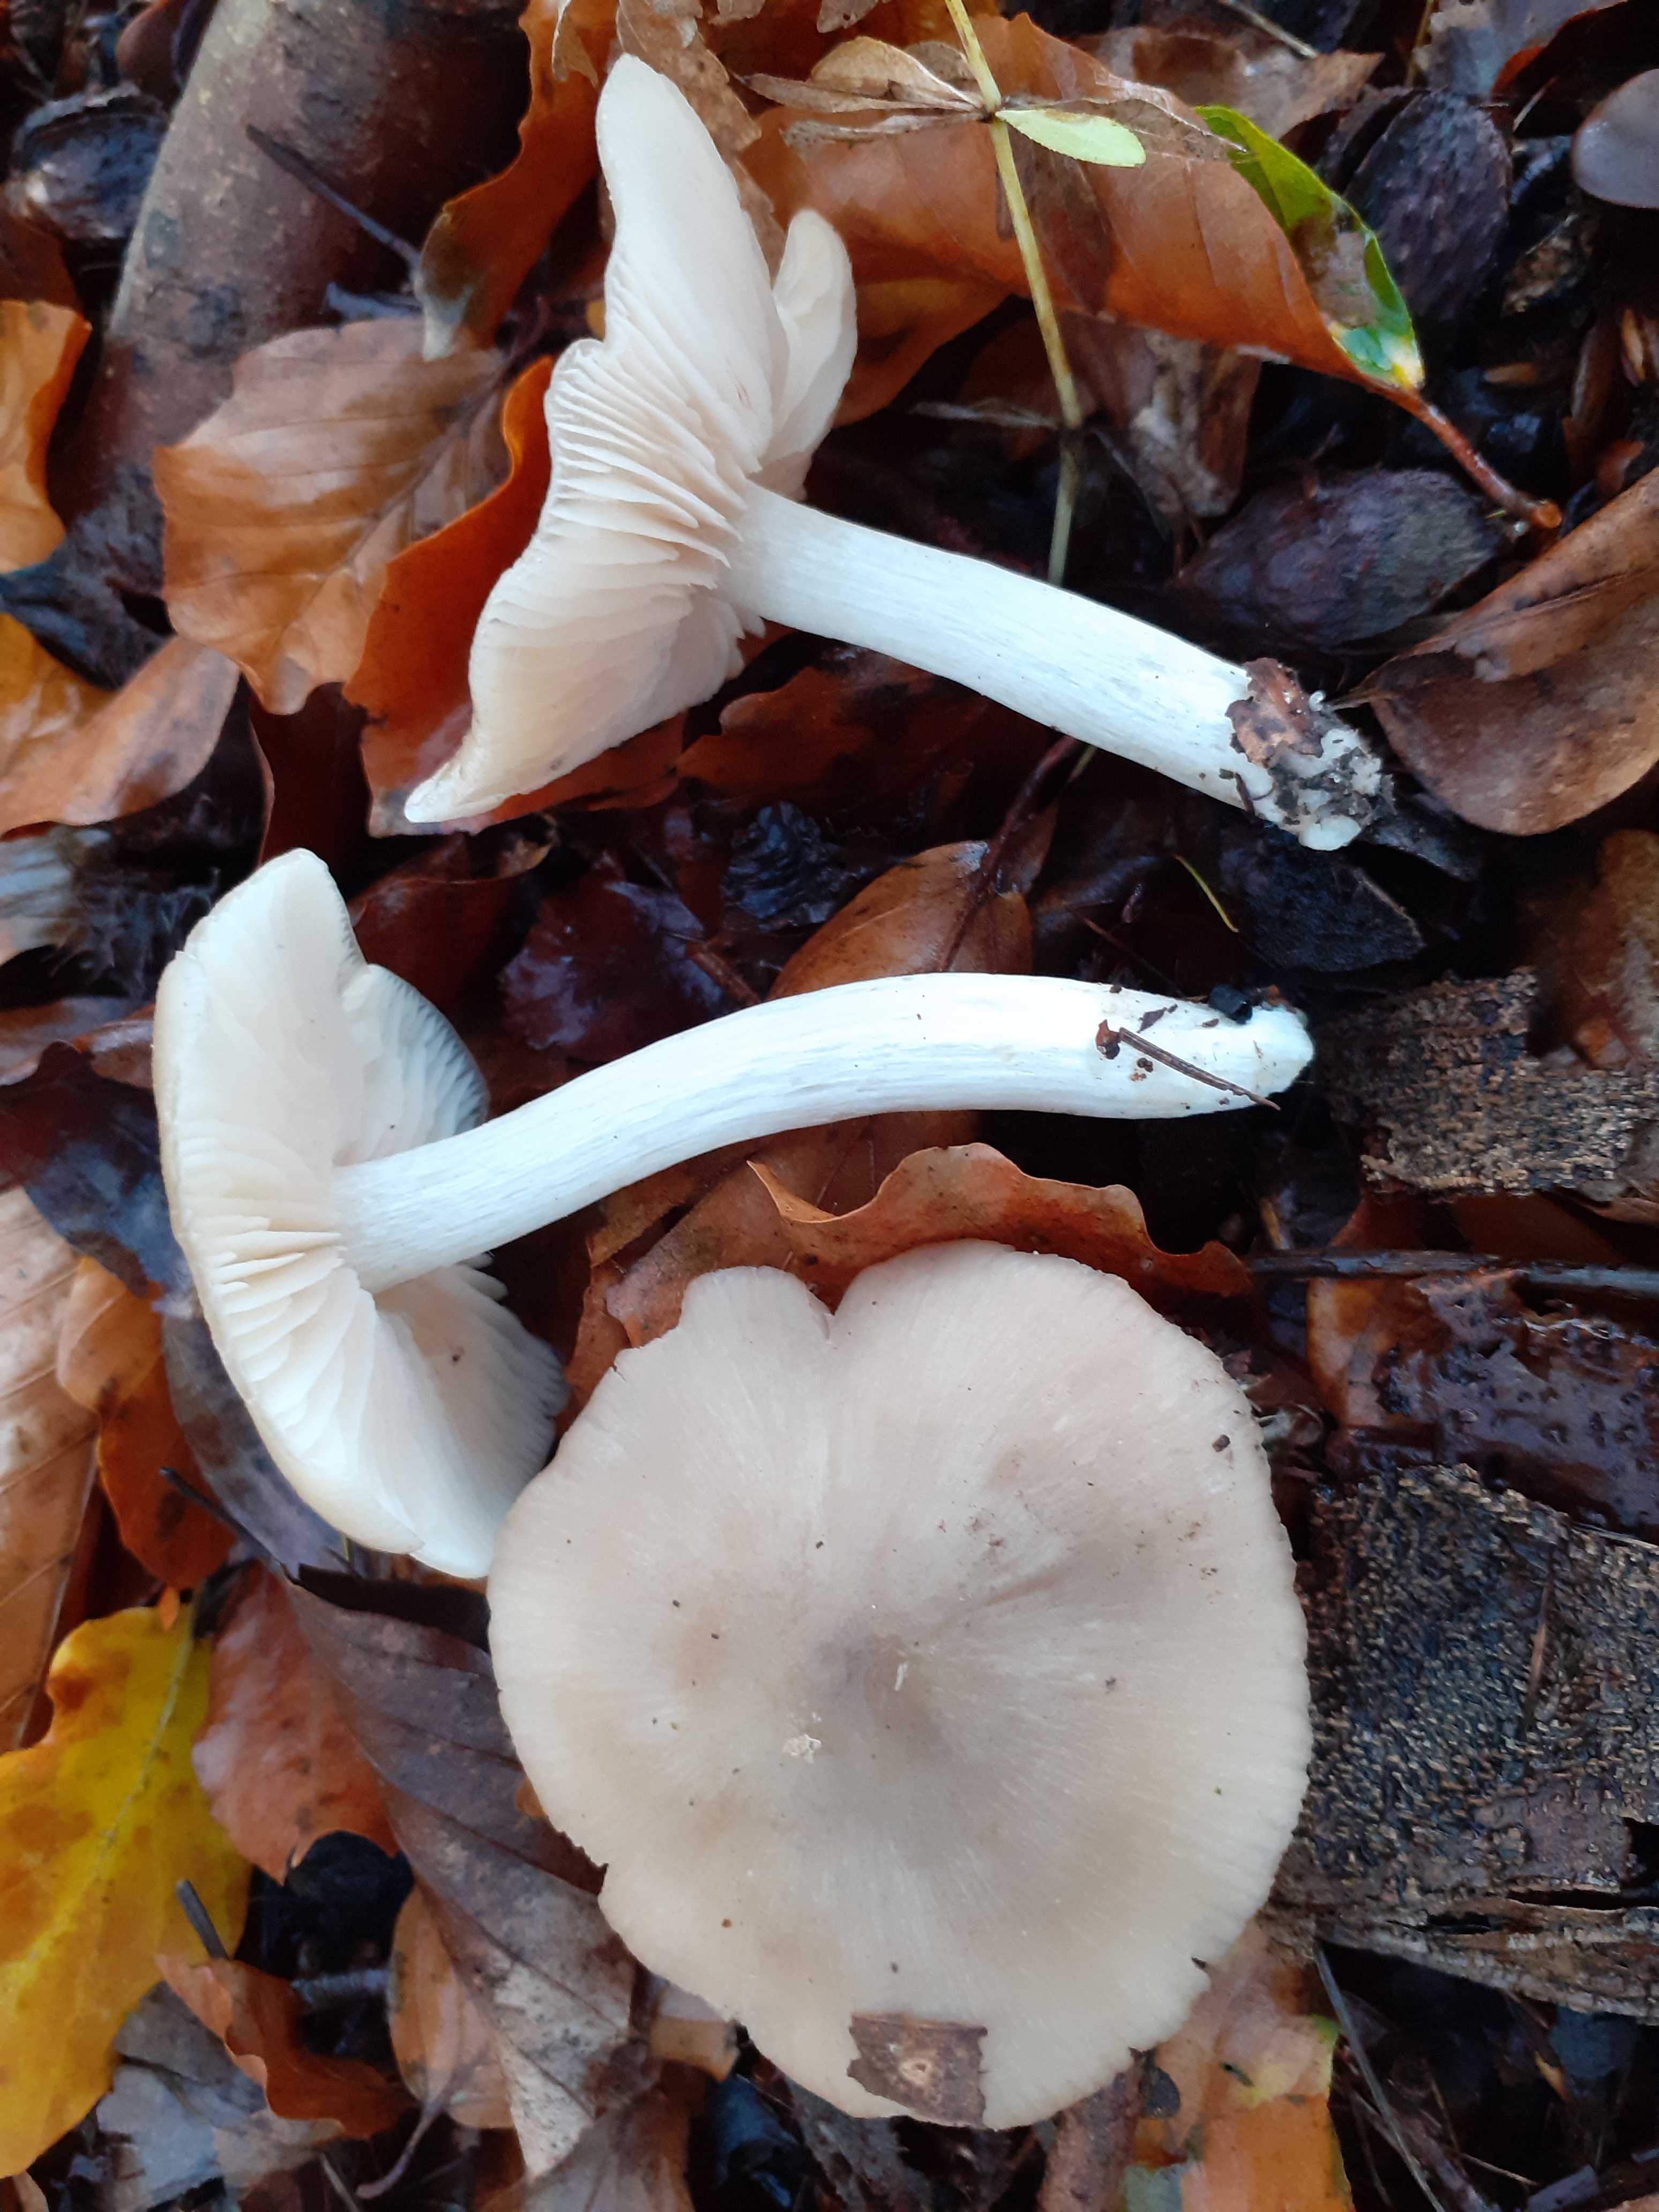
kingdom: Fungi
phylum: Basidiomycota
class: Agaricomycetes
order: Agaricales
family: Entolomataceae
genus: Entoloma
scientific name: Entoloma rhodopolium
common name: skov-rødblad
